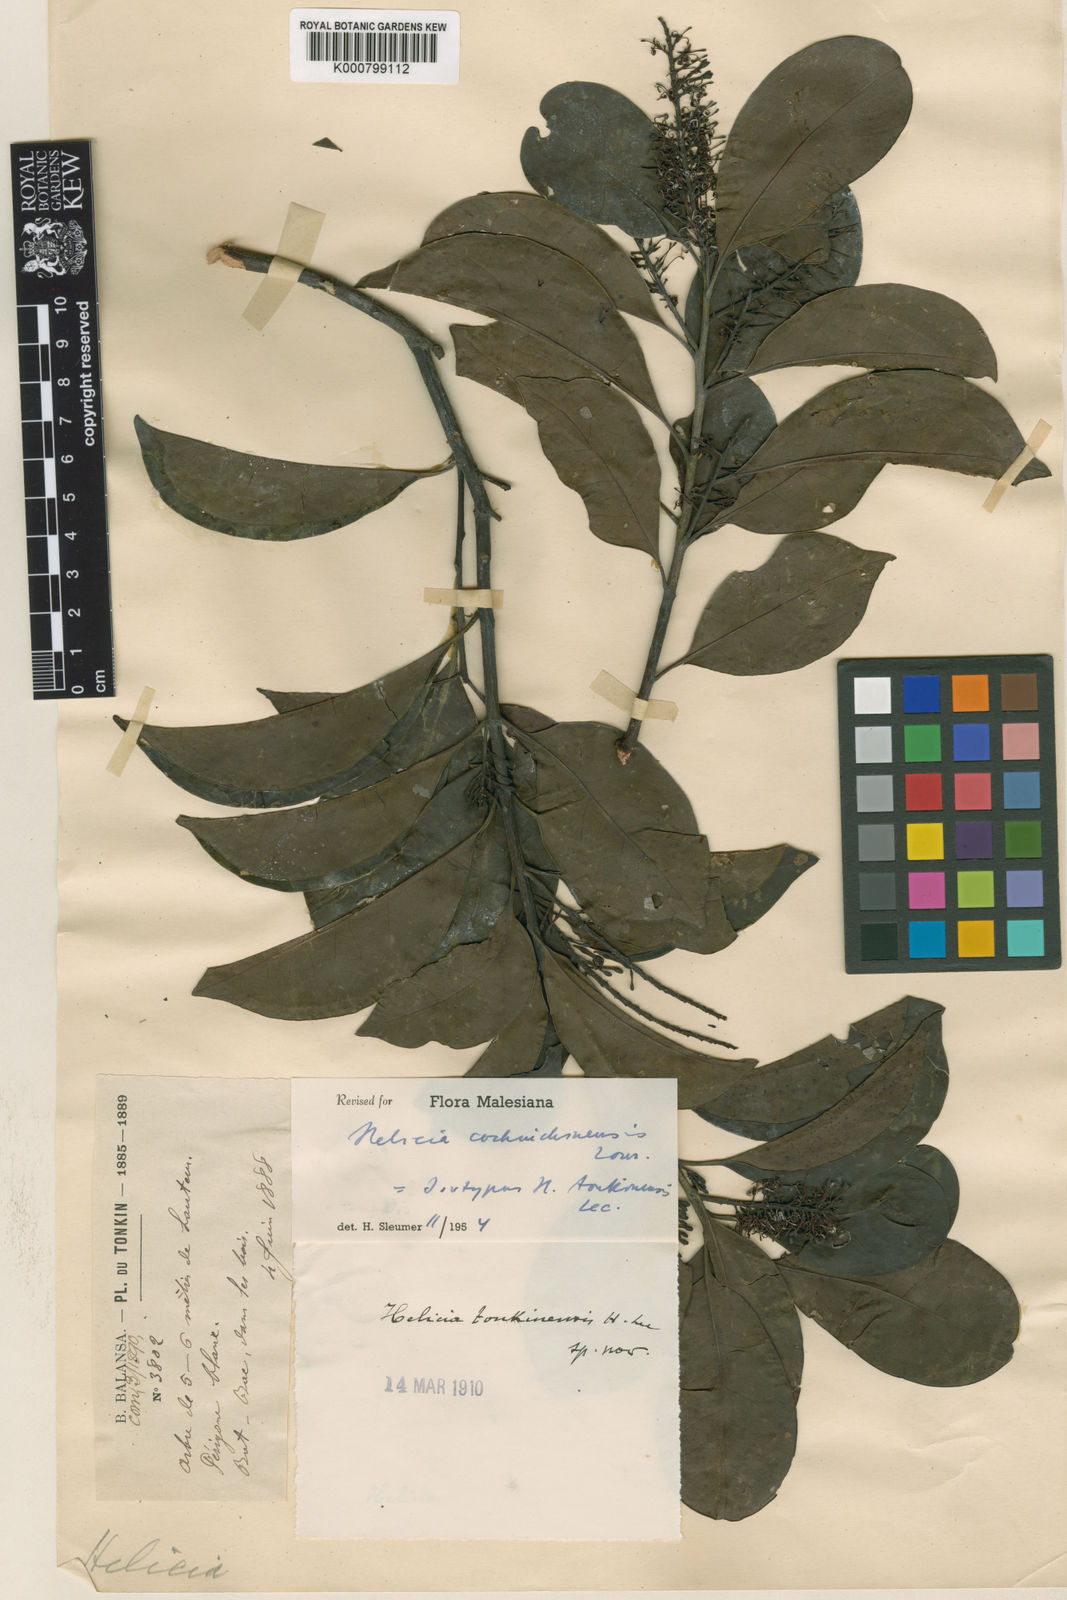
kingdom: Plantae
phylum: Tracheophyta
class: Magnoliopsida
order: Proteales
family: Proteaceae
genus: Helicia
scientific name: Helicia cochinchinensis
